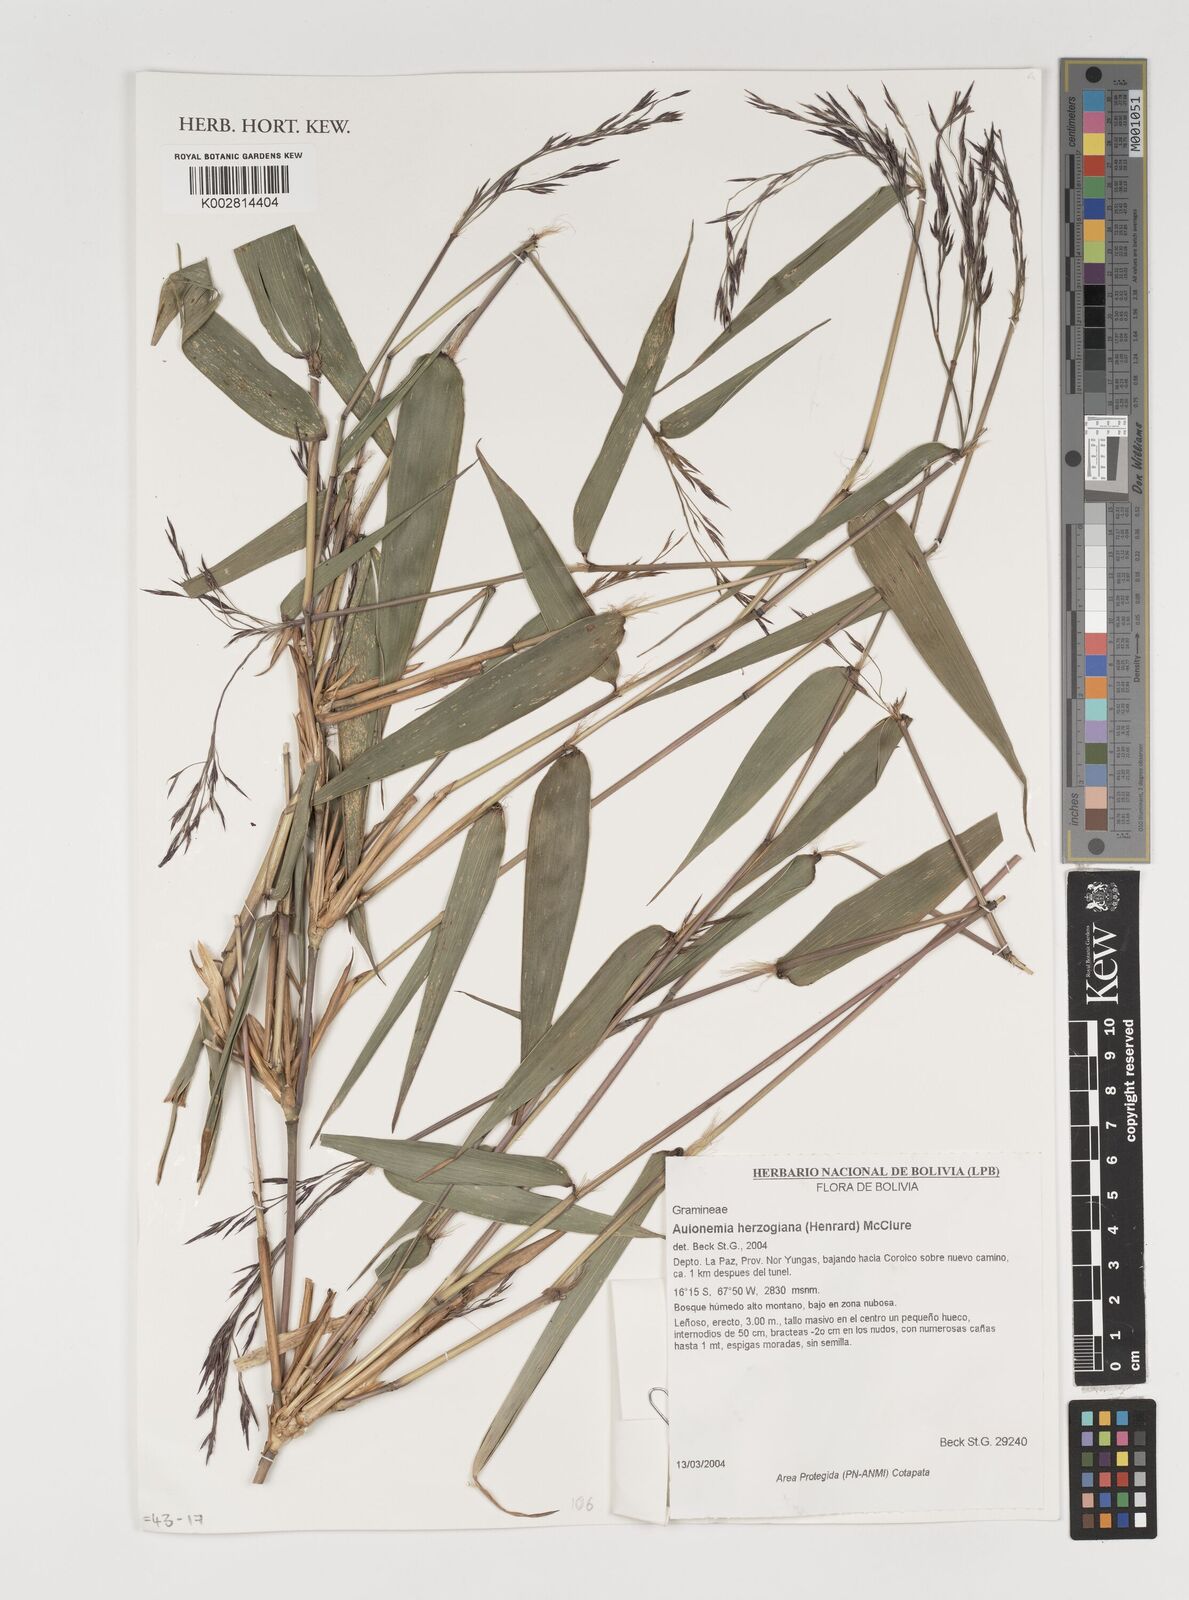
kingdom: Plantae
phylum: Tracheophyta
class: Liliopsida
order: Poales
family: Poaceae
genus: Aulonemia
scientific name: Aulonemia herzogiana
